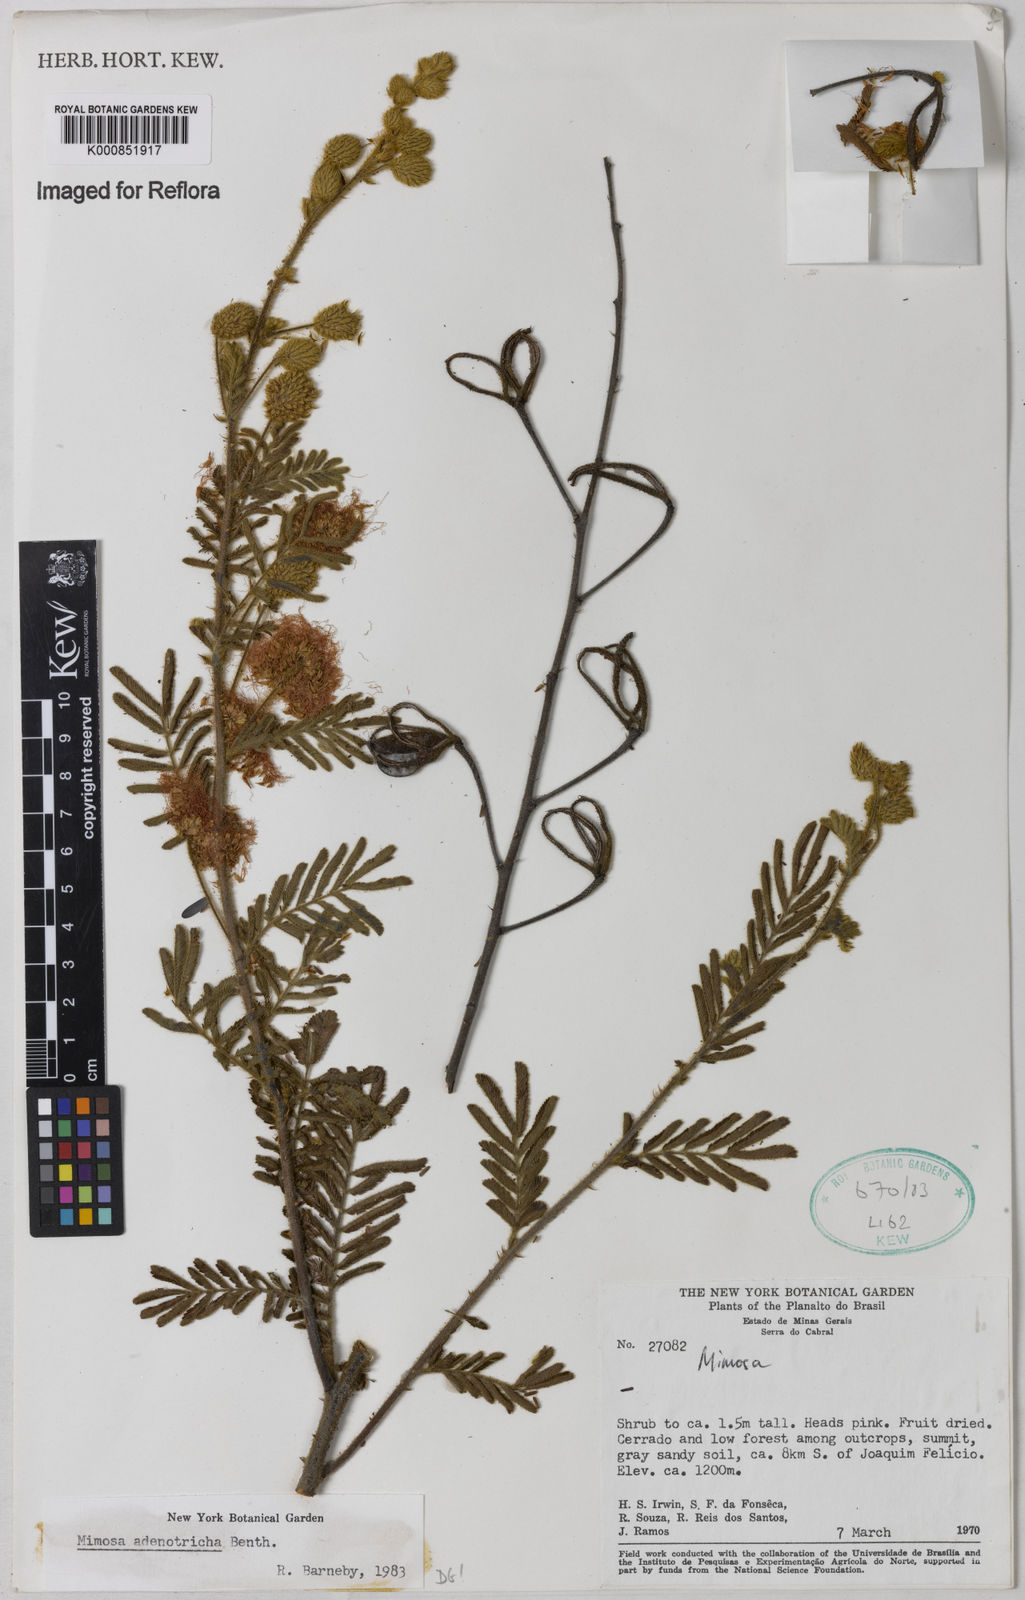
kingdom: Plantae
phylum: Tracheophyta
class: Magnoliopsida
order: Fabales
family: Fabaceae
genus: Mimosa
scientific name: Mimosa adenotricha
